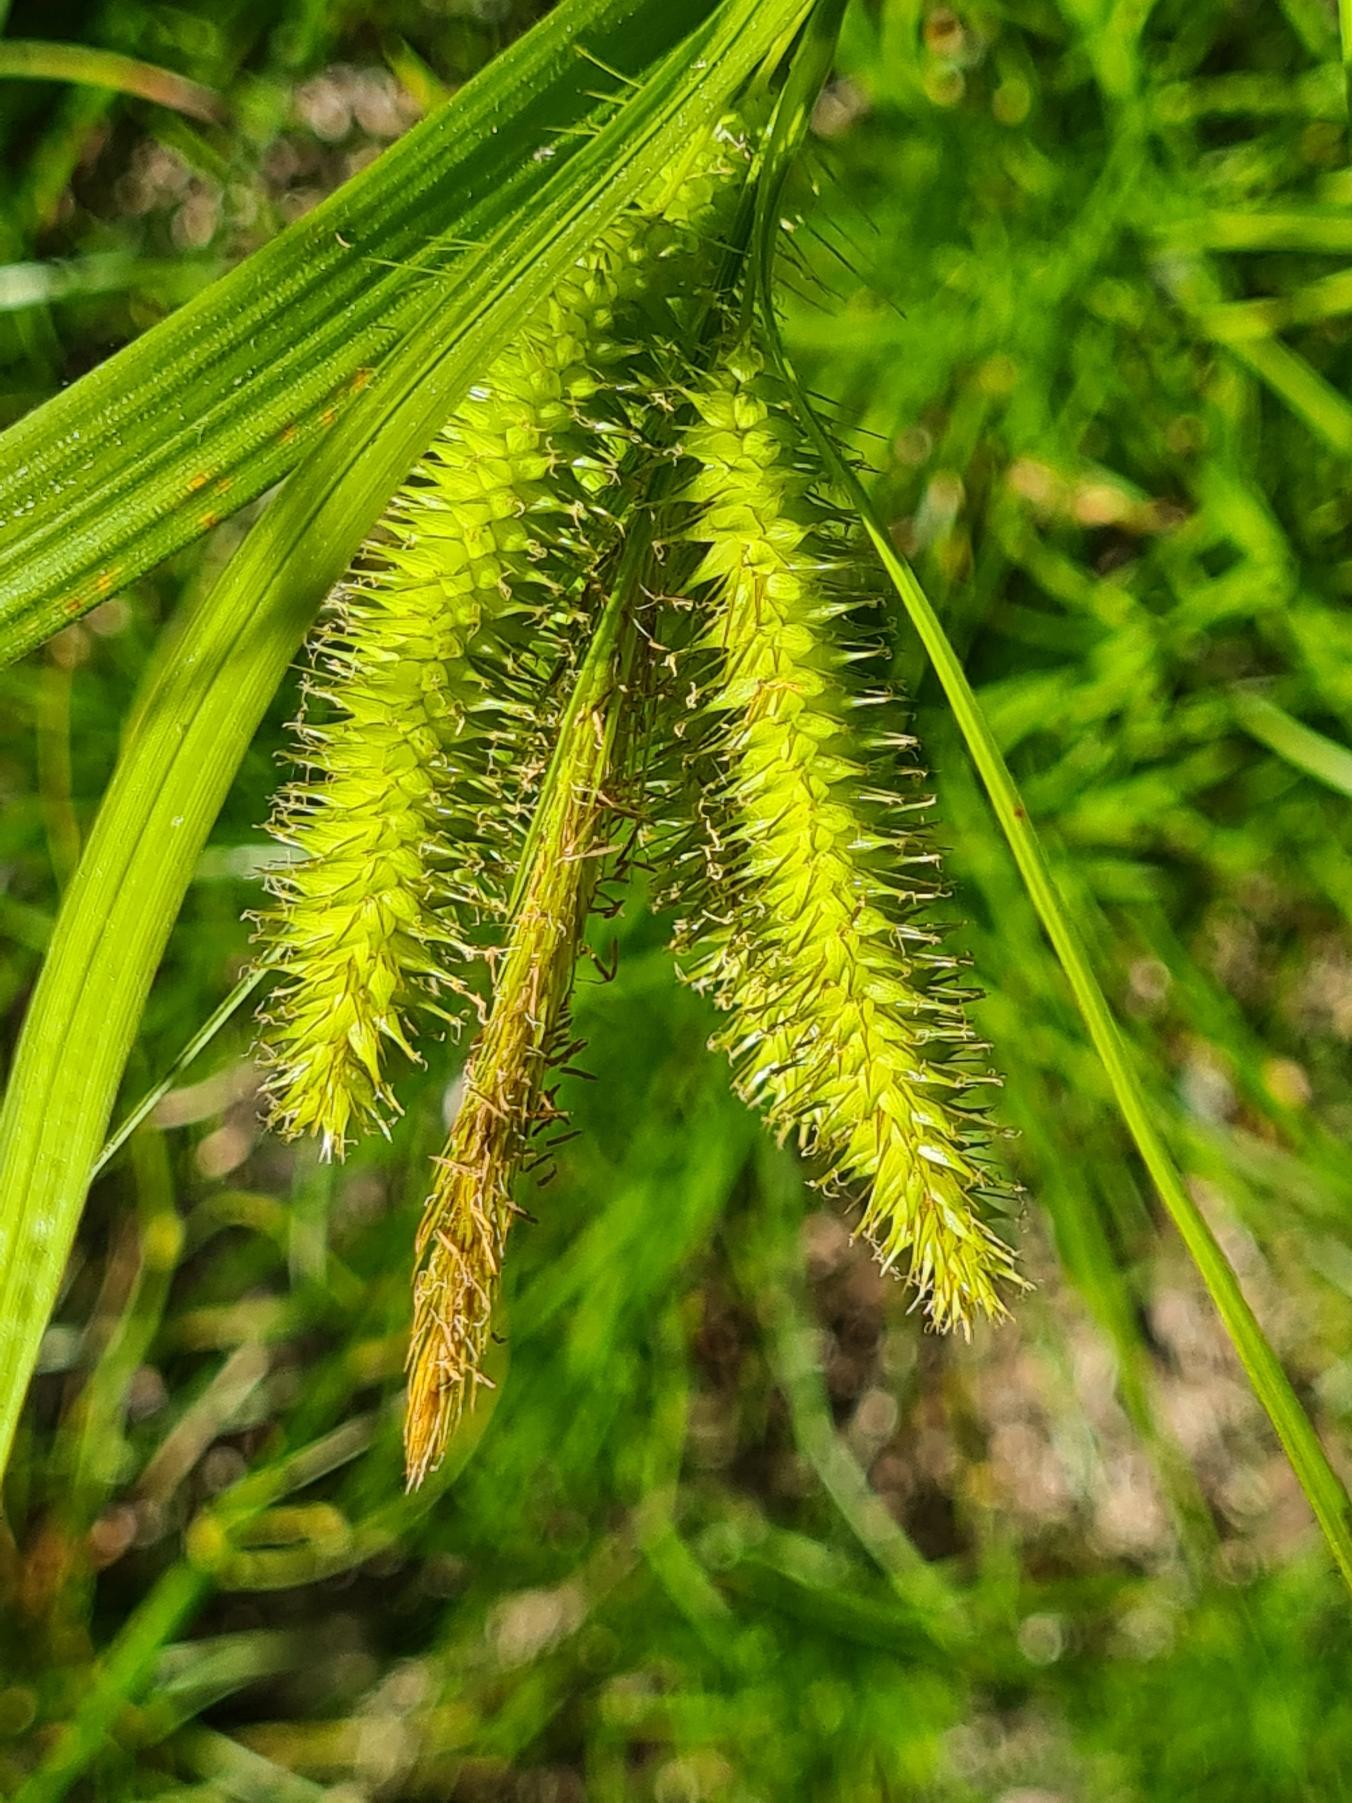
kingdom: Plantae
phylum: Tracheophyta
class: Liliopsida
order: Poales
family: Cyperaceae
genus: Carex
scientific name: Carex pseudocyperus
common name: Knippe-star
